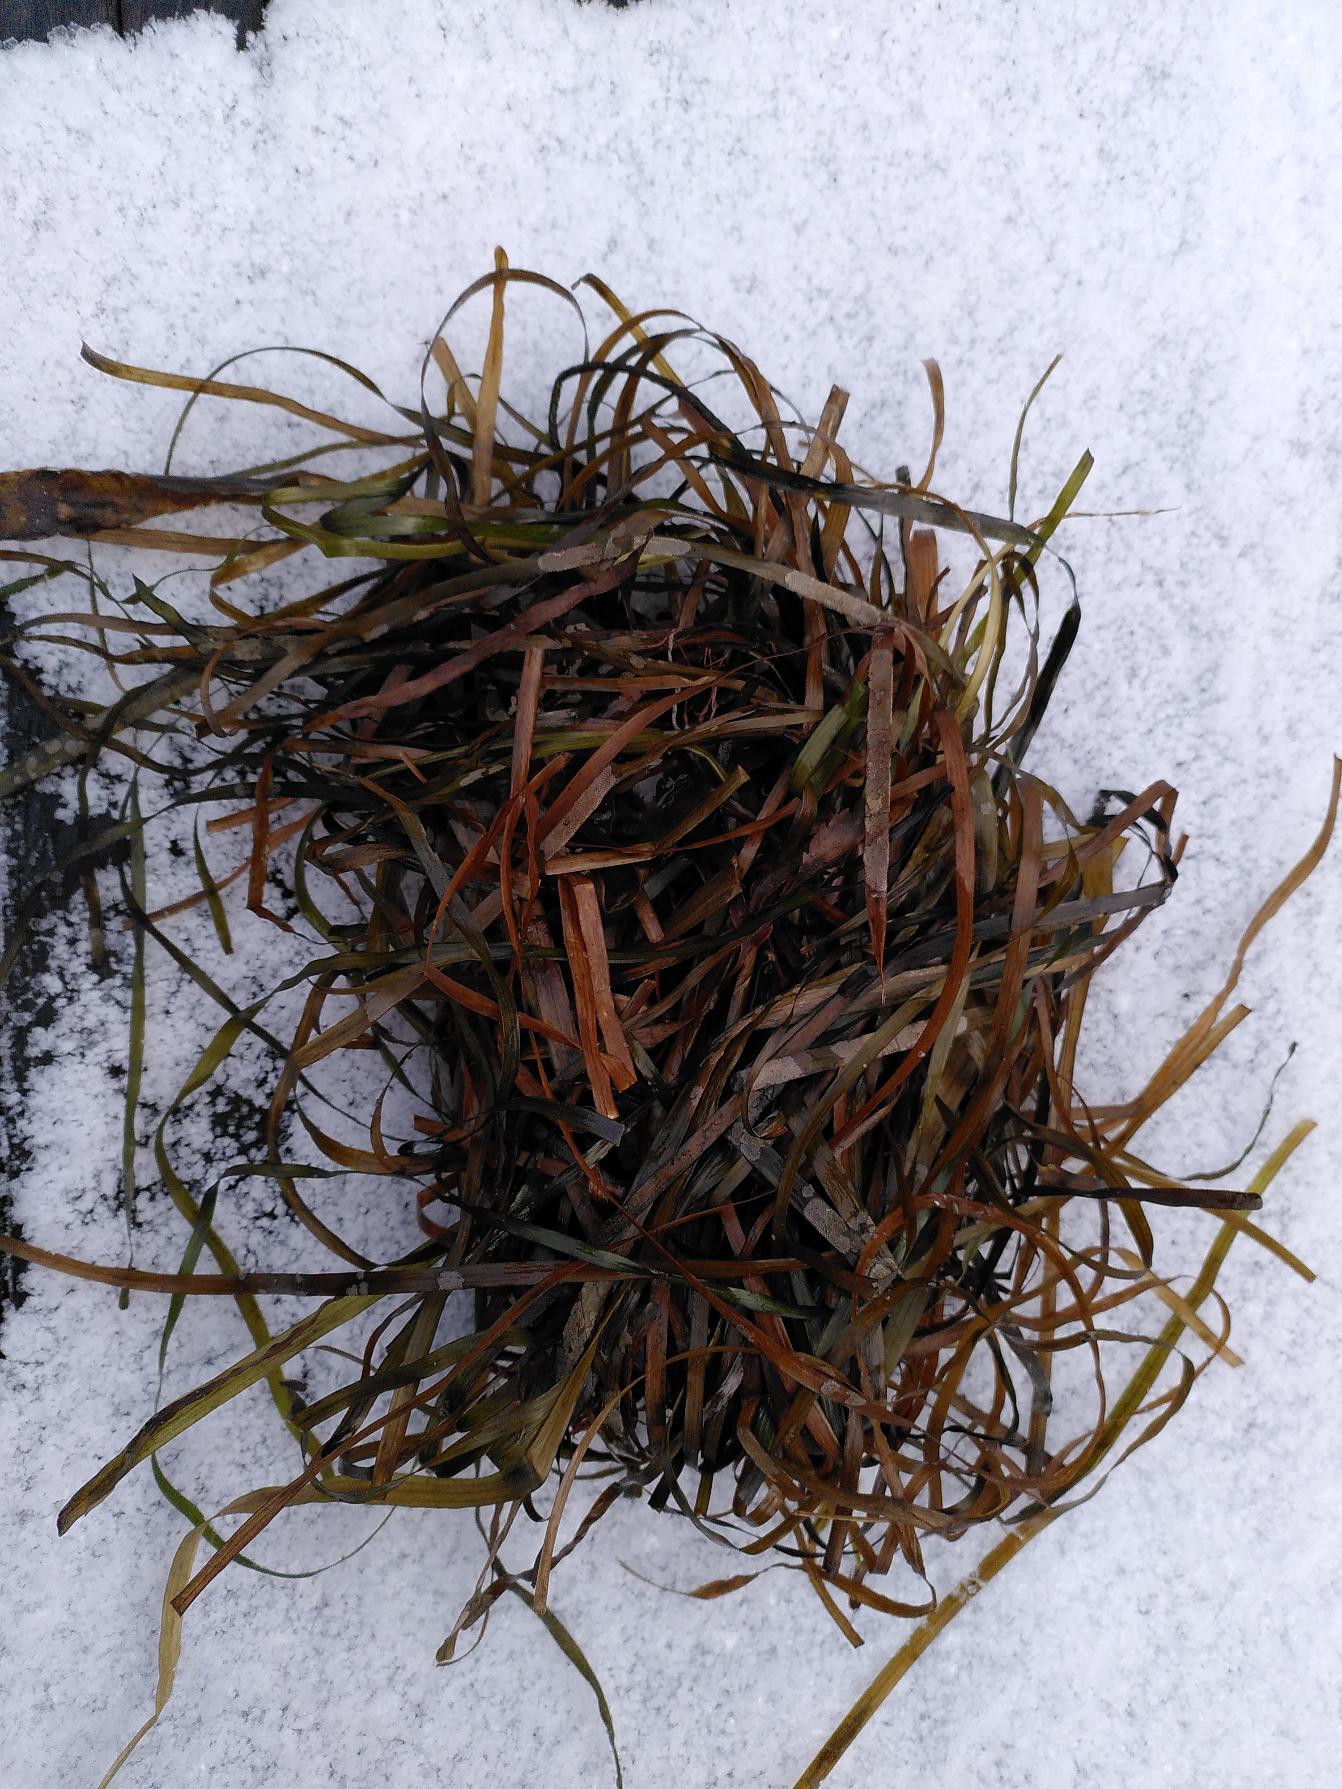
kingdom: Plantae
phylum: Tracheophyta
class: Liliopsida
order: Alismatales
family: Zosteraceae
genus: Zostera
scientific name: Zostera marina
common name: Almindelig bændeltang
